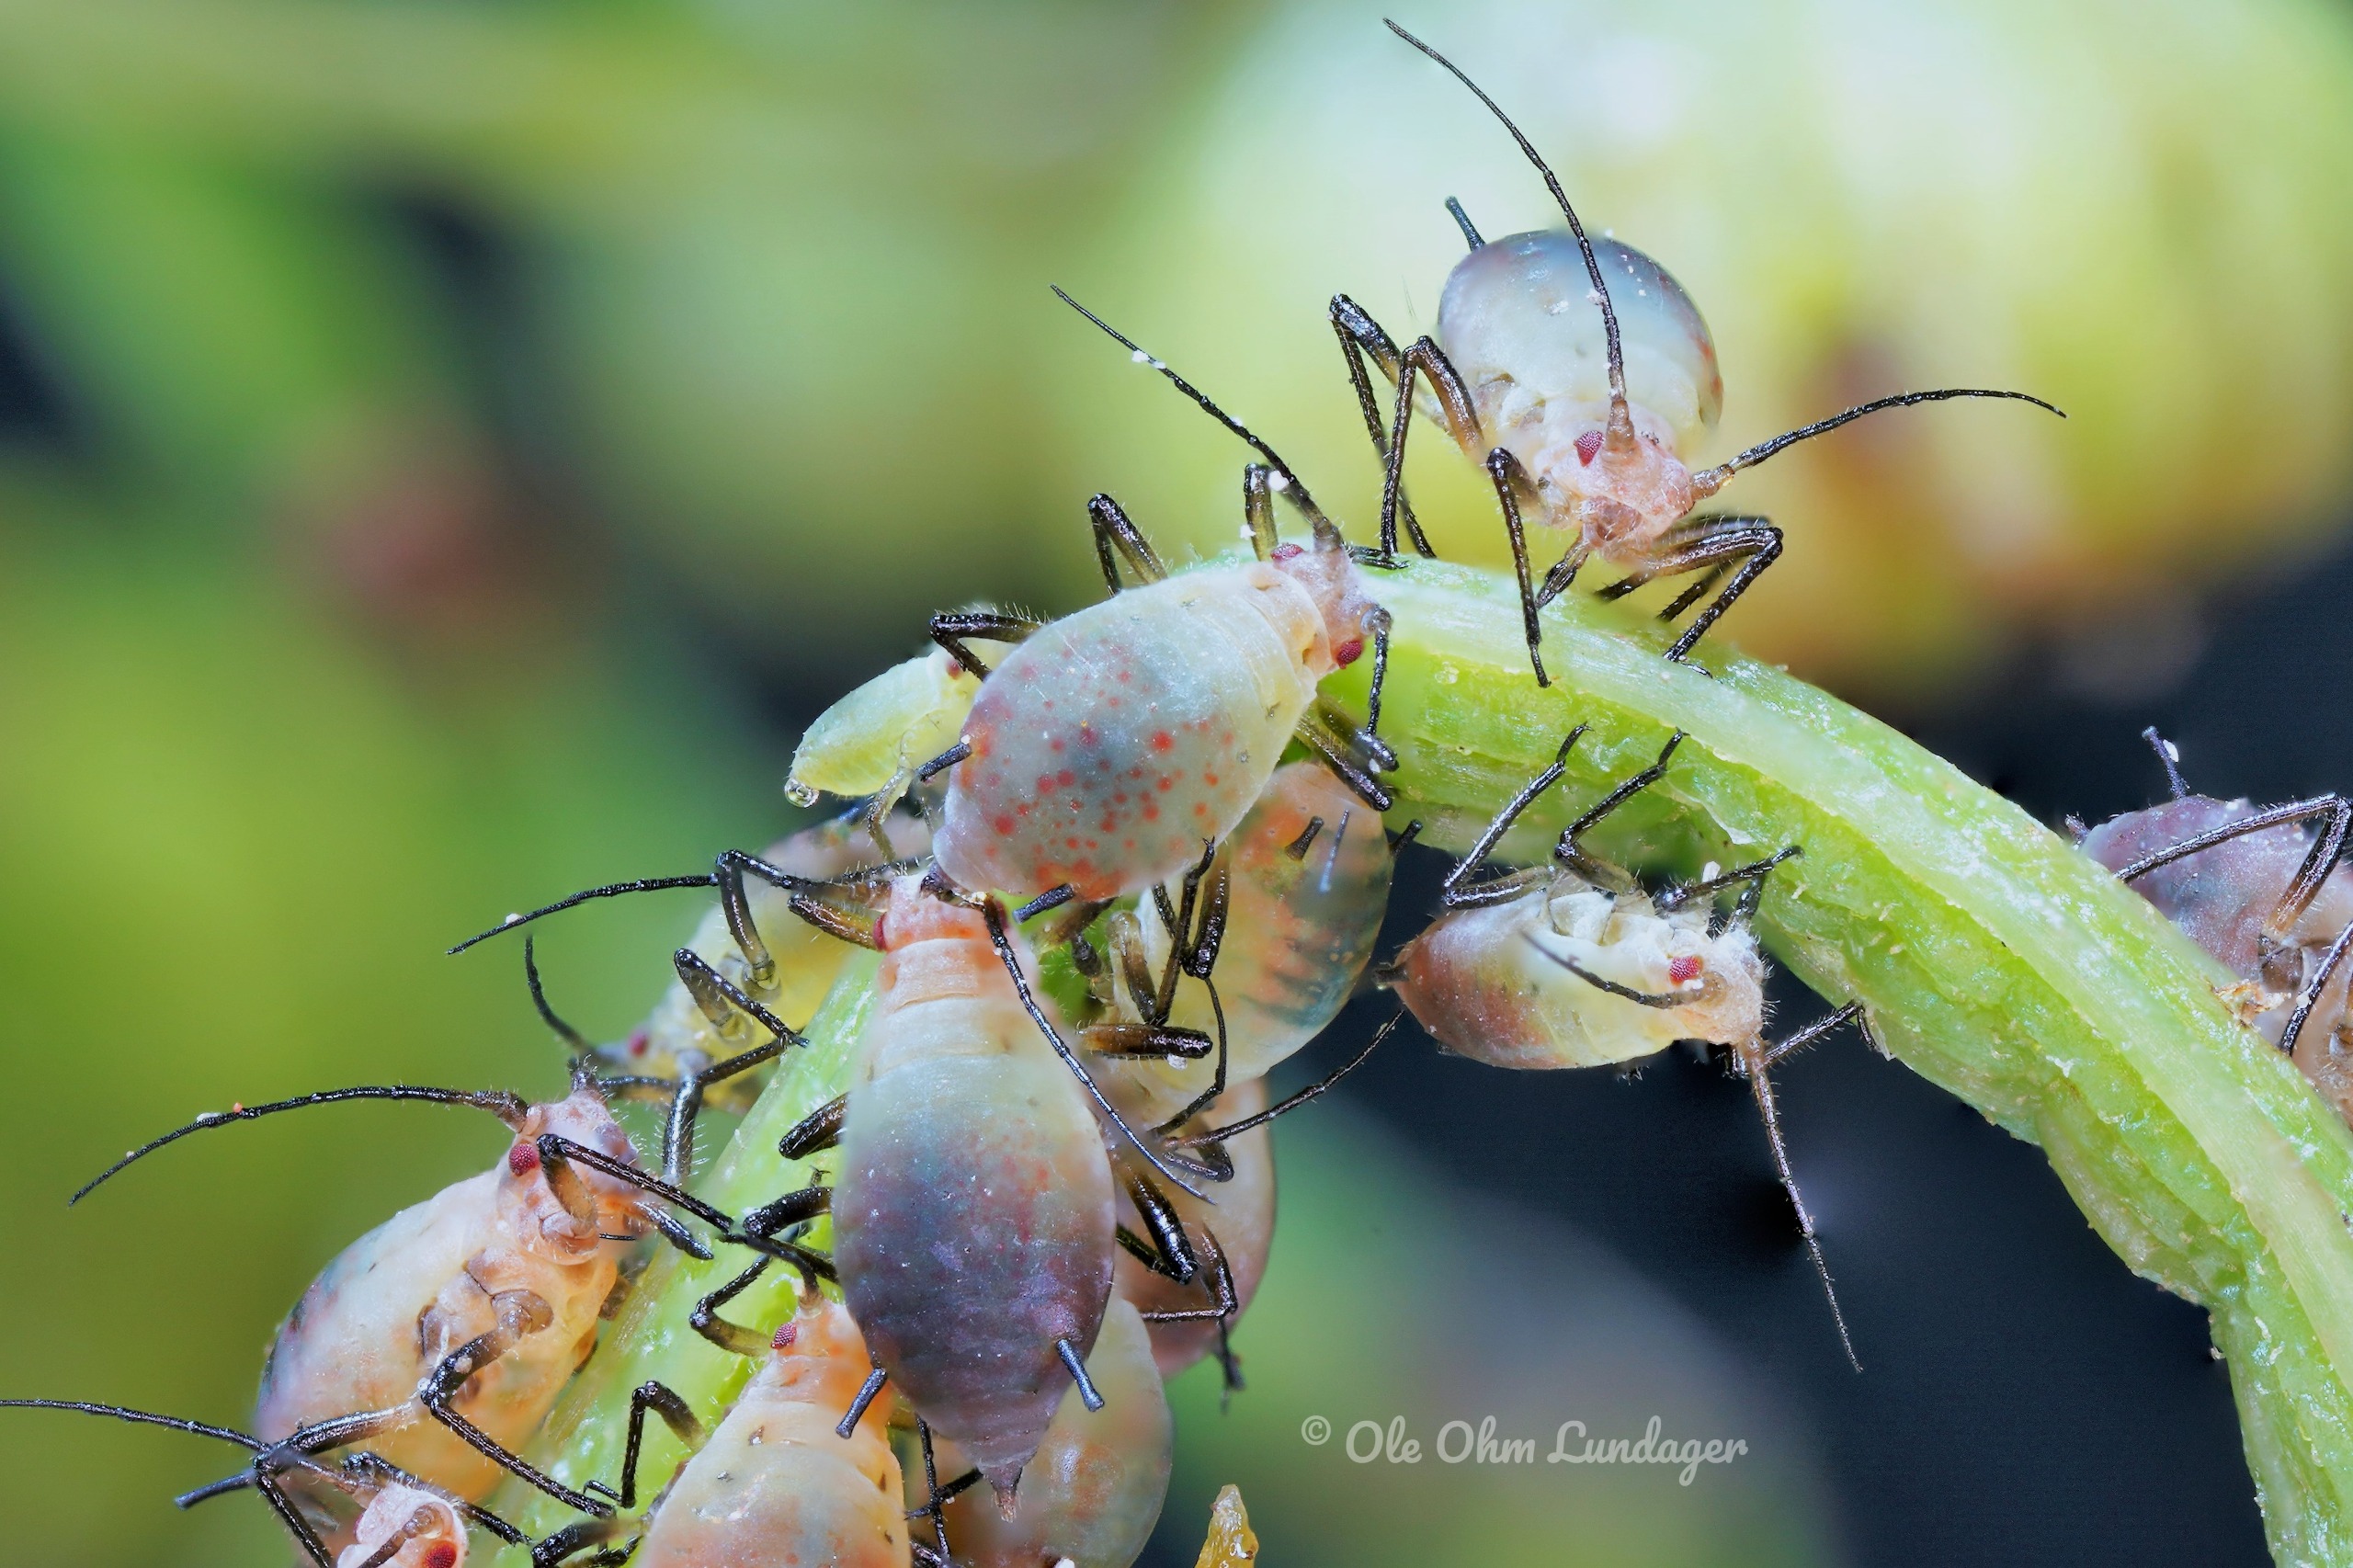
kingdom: Animalia
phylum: Arthropoda
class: Insecta
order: Hemiptera
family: Aphididae
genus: Metopeurum
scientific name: Metopeurum fuscoviride
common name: Mørk rejnfanbladlus
